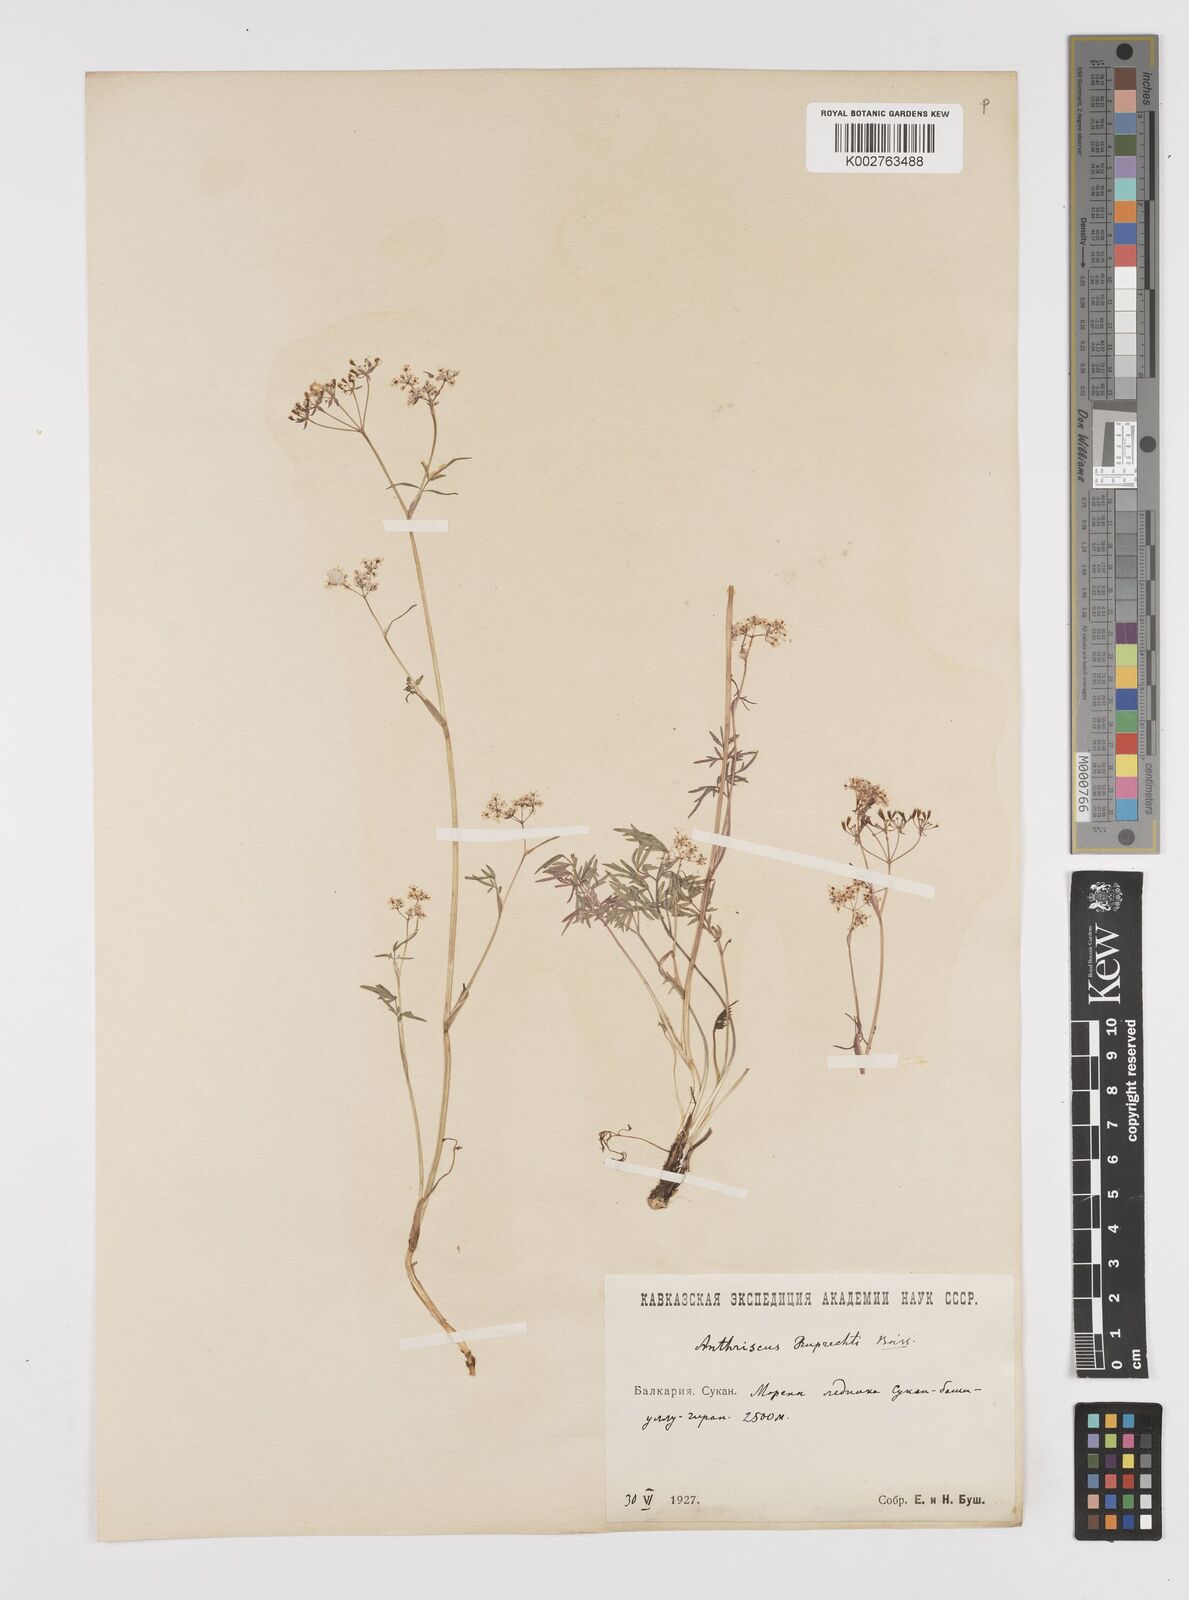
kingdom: Plantae
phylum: Tracheophyta
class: Magnoliopsida
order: Apiales
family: Apiaceae
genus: Anthriscus
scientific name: Anthriscus ruprechtii
